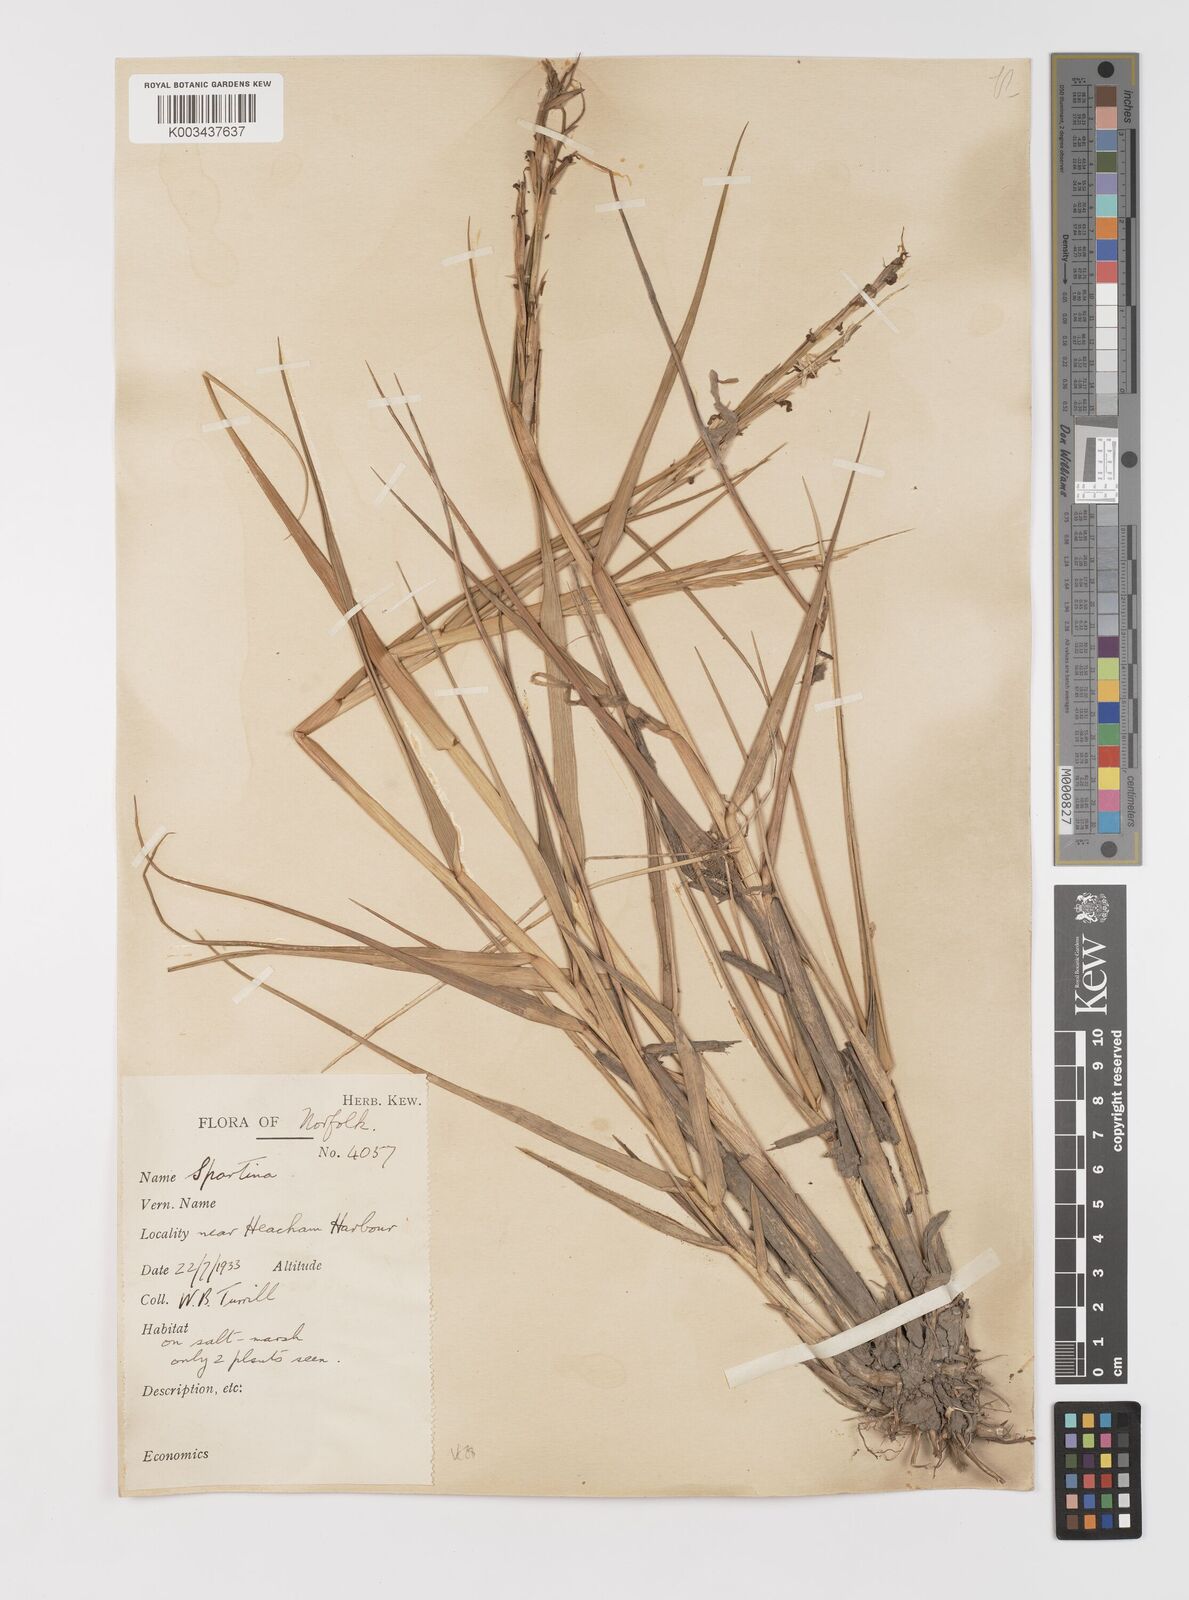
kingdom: Plantae
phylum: Tracheophyta
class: Liliopsida
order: Poales
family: Poaceae
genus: Sporobolus
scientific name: Sporobolus anglicus
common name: English cordgrass
